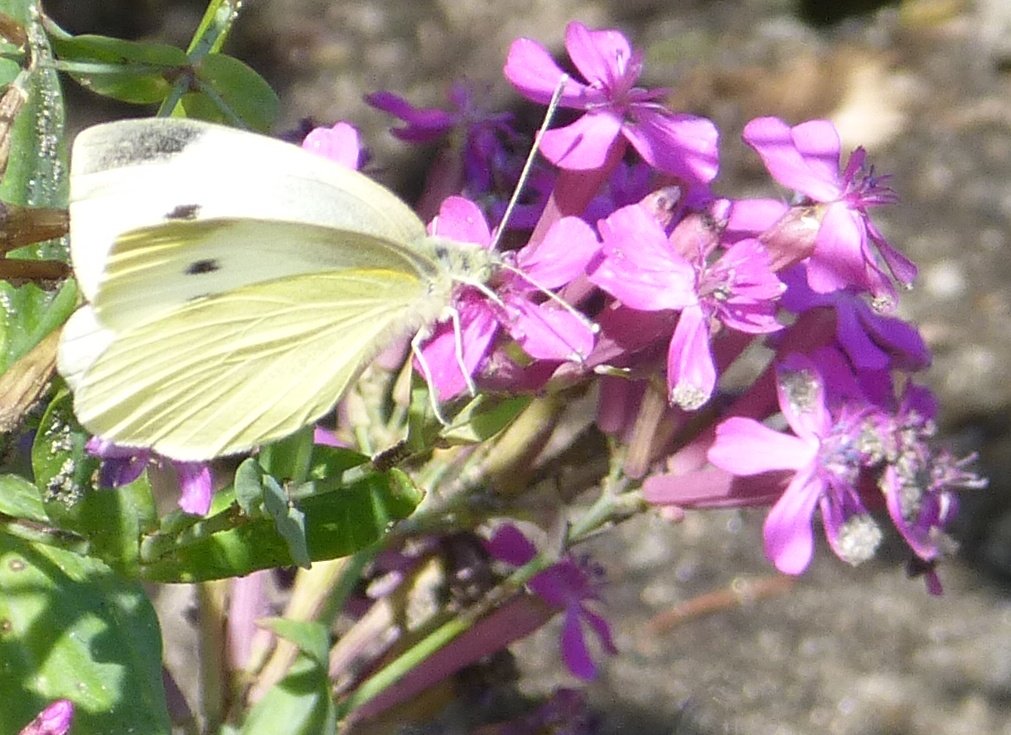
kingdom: Animalia
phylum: Arthropoda
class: Insecta
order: Lepidoptera
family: Pieridae
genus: Pieris
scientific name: Pieris rapae
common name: Cabbage White
